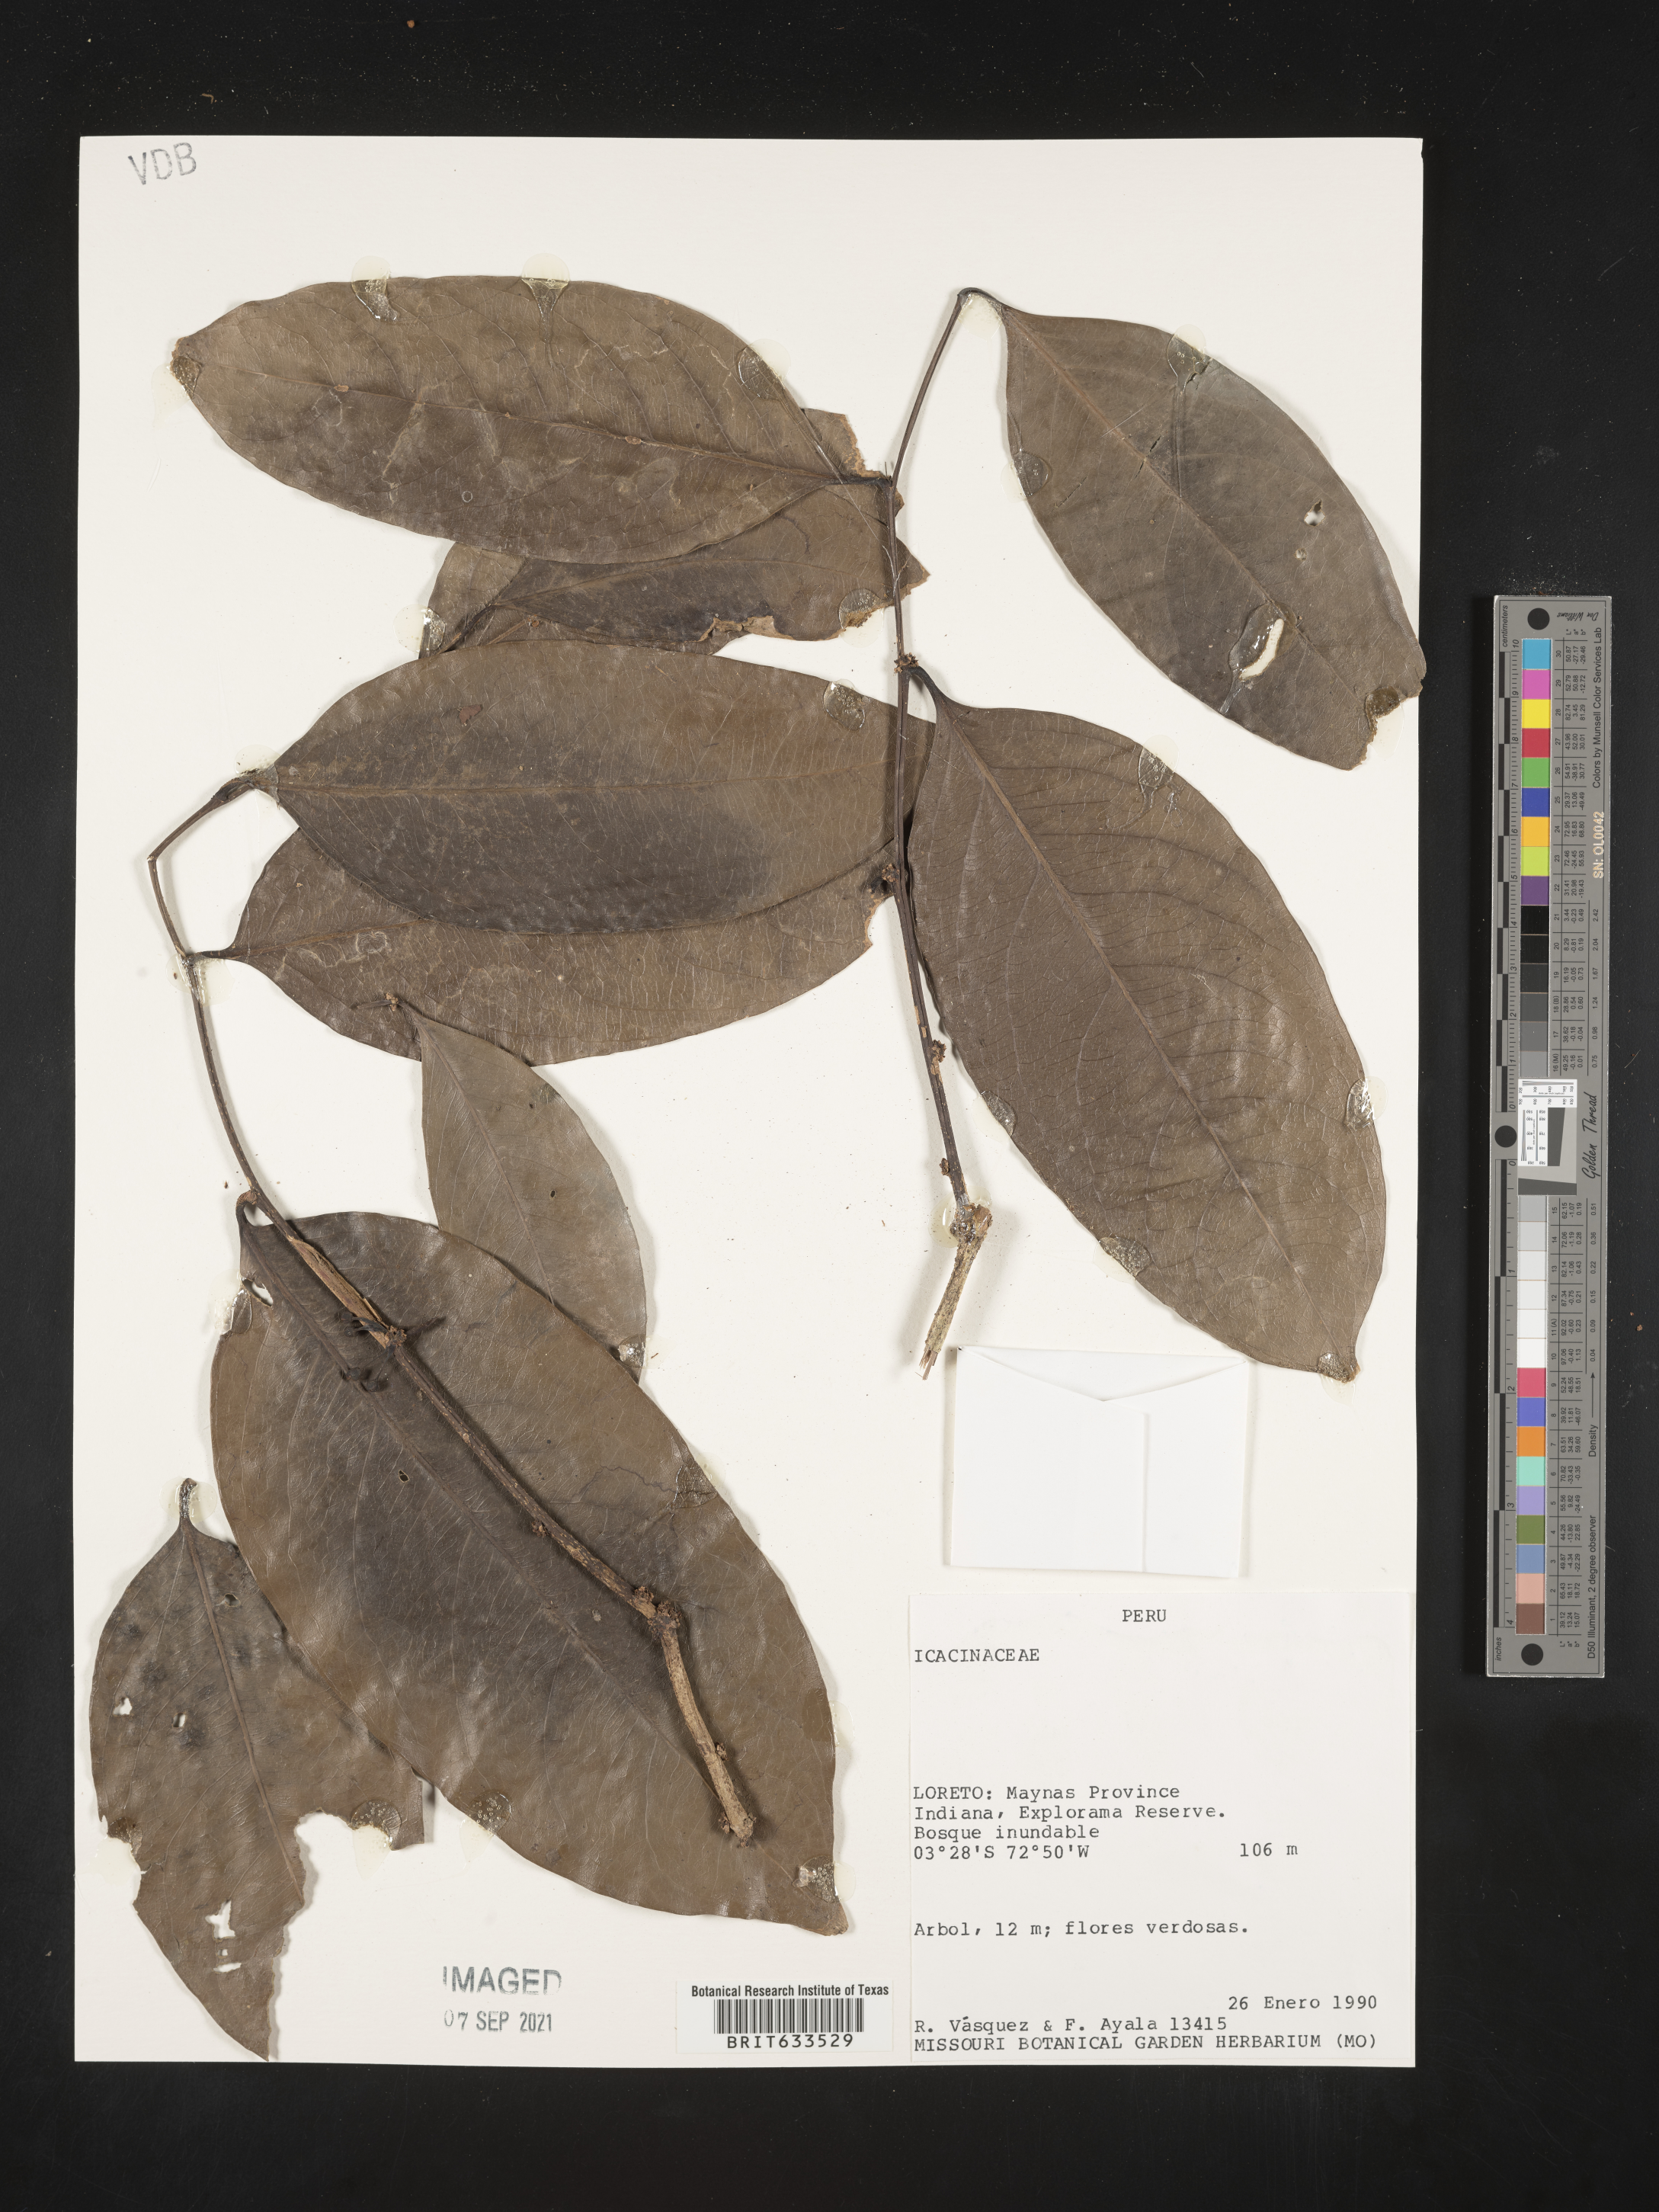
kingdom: Plantae
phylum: Tracheophyta
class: Magnoliopsida
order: Icacinales
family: Icacinaceae
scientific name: Icacinaceae
